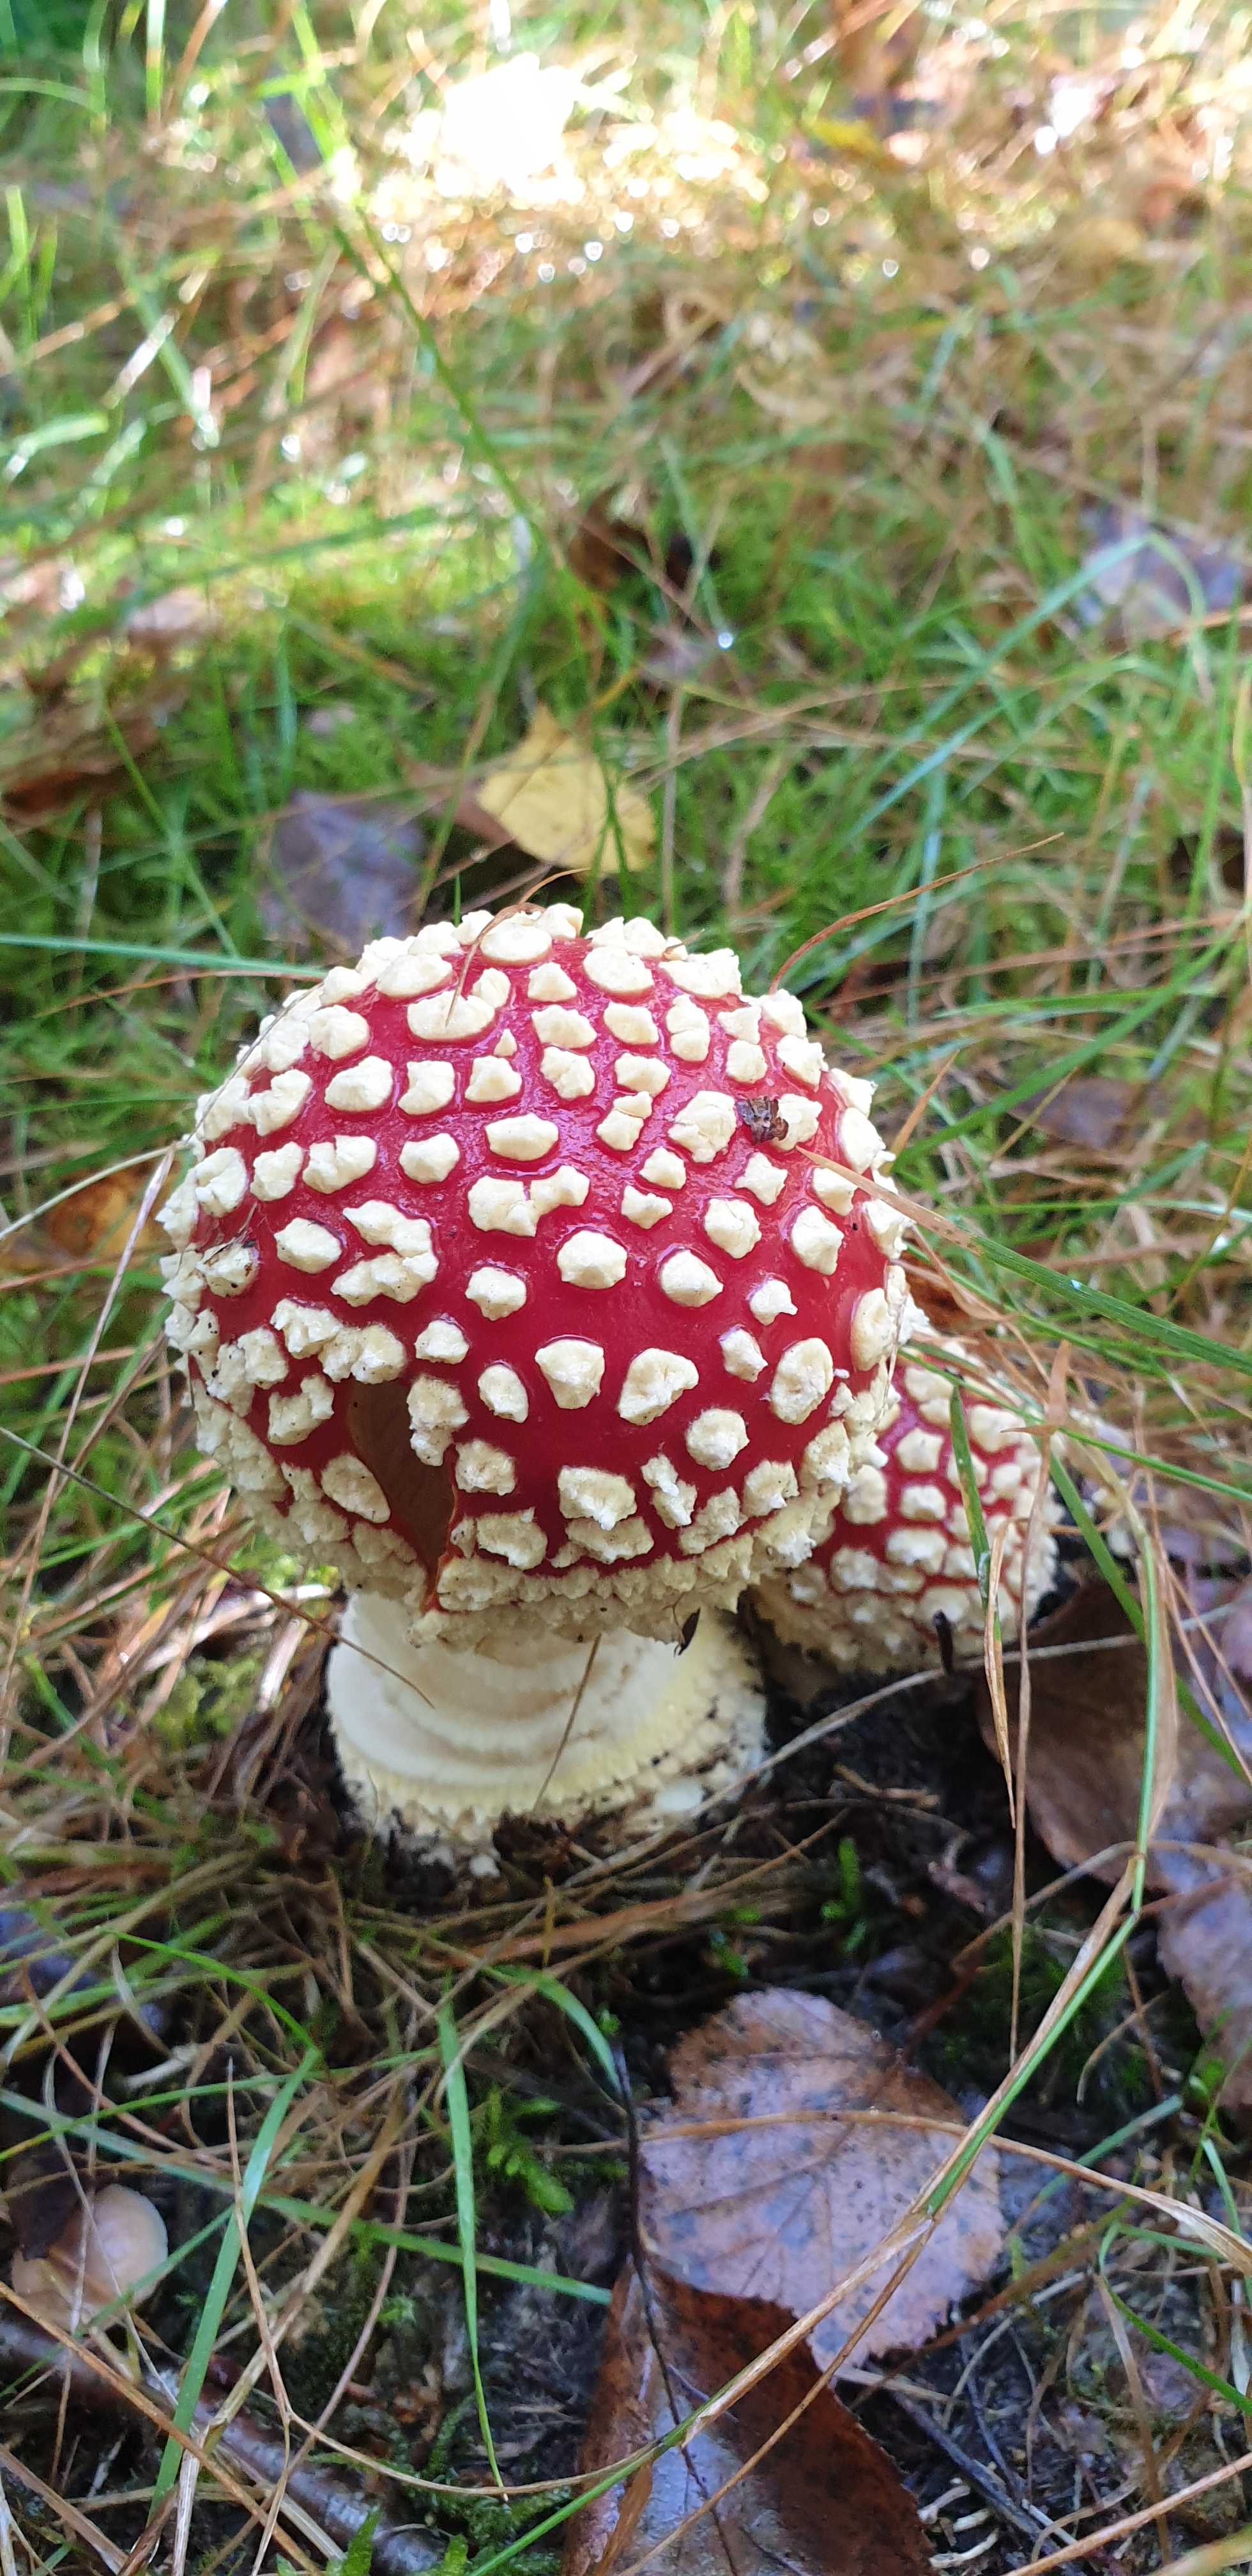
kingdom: Fungi
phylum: Basidiomycota
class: Agaricomycetes
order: Agaricales
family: Amanitaceae
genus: Amanita
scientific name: Amanita muscaria
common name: rød fluesvamp
